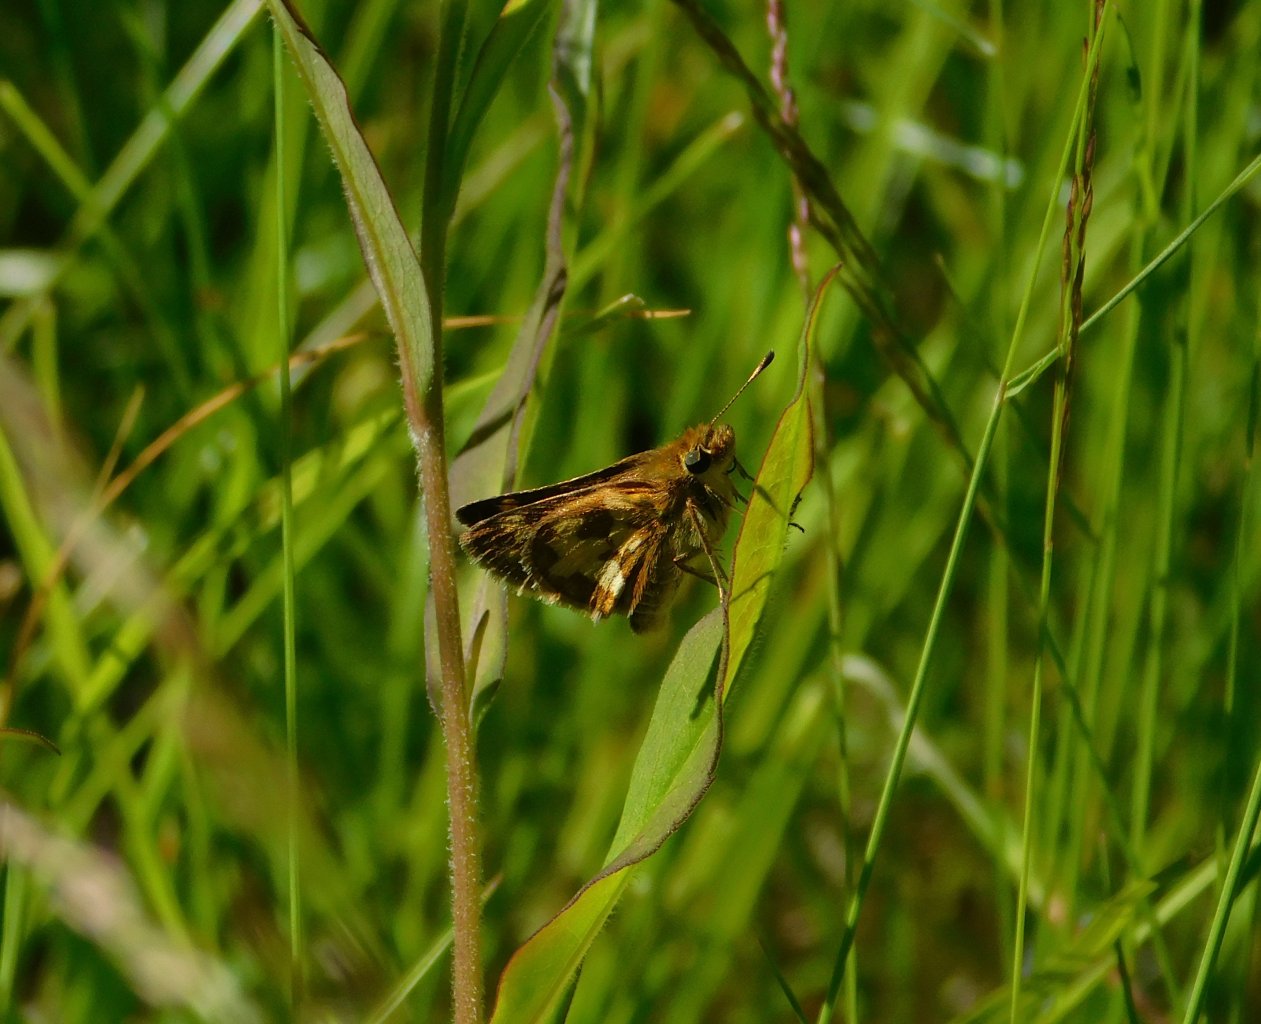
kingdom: Animalia
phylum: Arthropoda
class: Insecta
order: Lepidoptera
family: Hesperiidae
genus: Polites
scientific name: Polites coras
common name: Peck's Skipper
